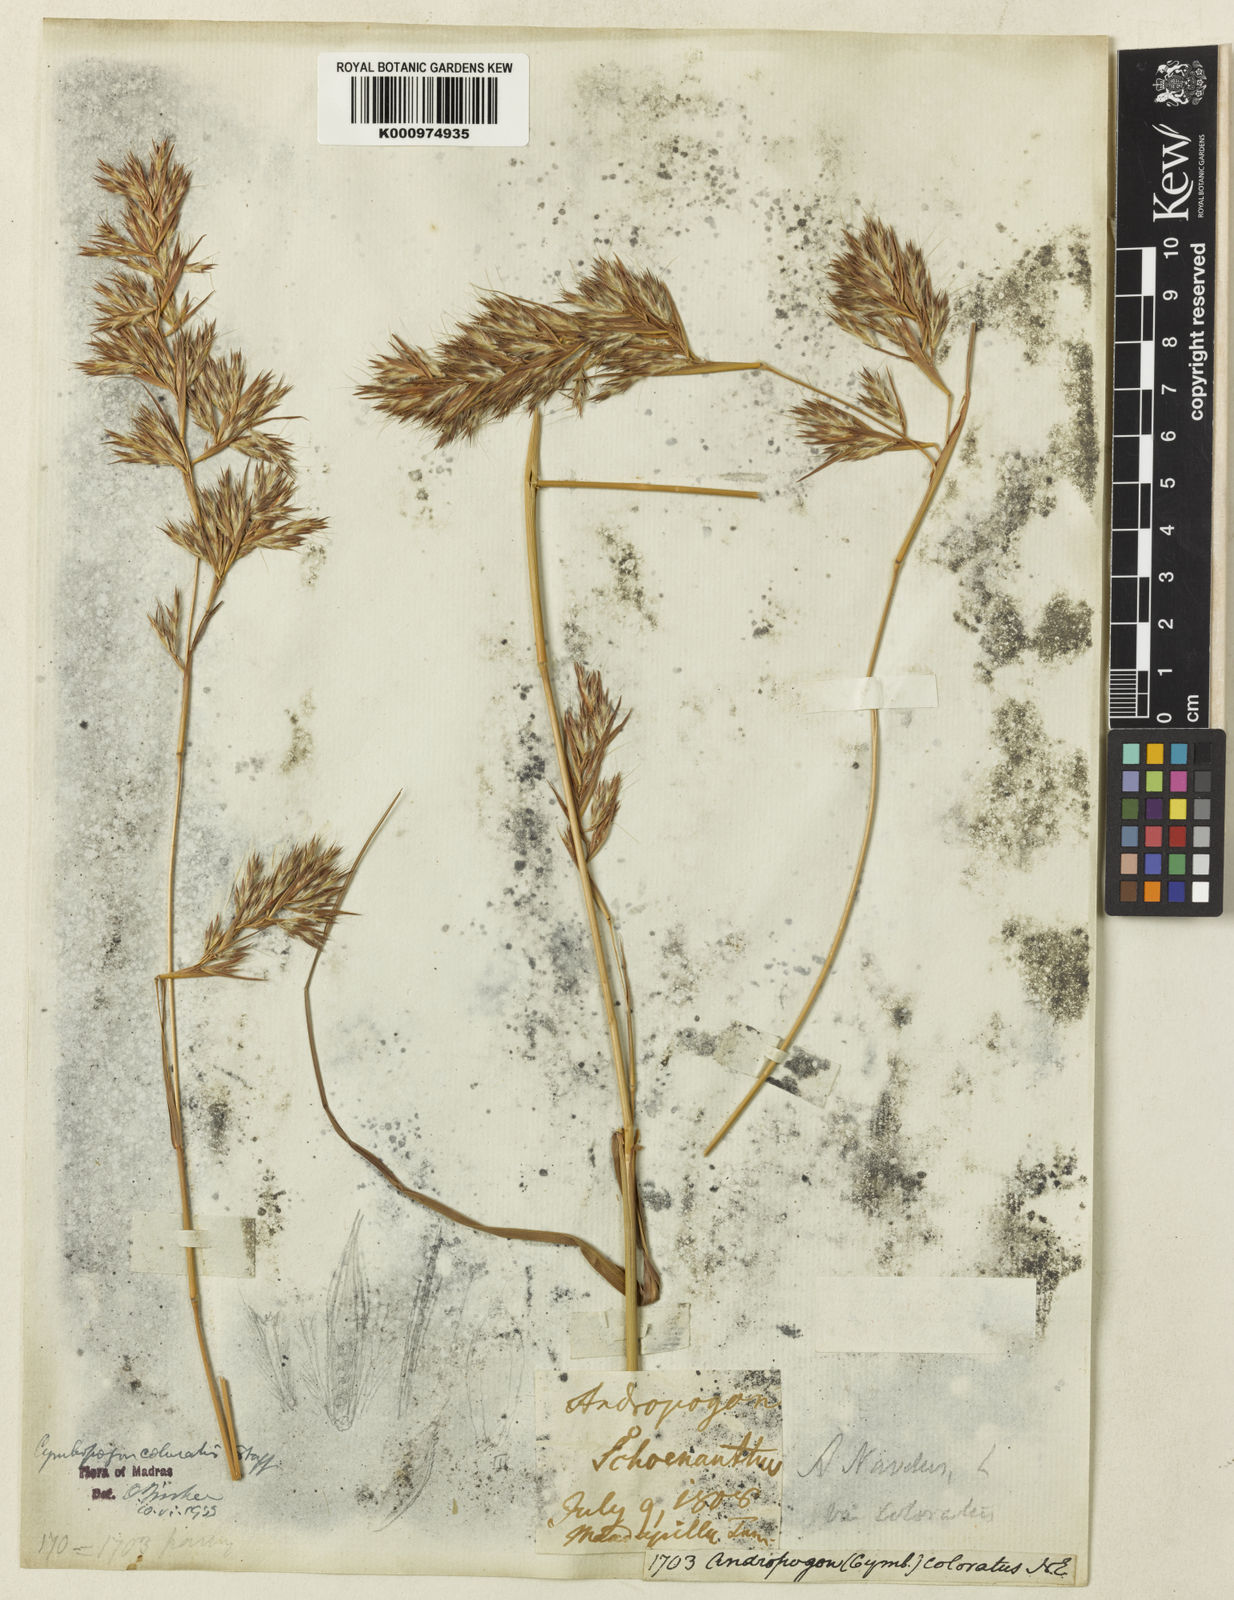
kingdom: Plantae
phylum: Tracheophyta
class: Liliopsida
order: Poales
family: Poaceae
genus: Cymbopogon
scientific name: Cymbopogon coloratus
